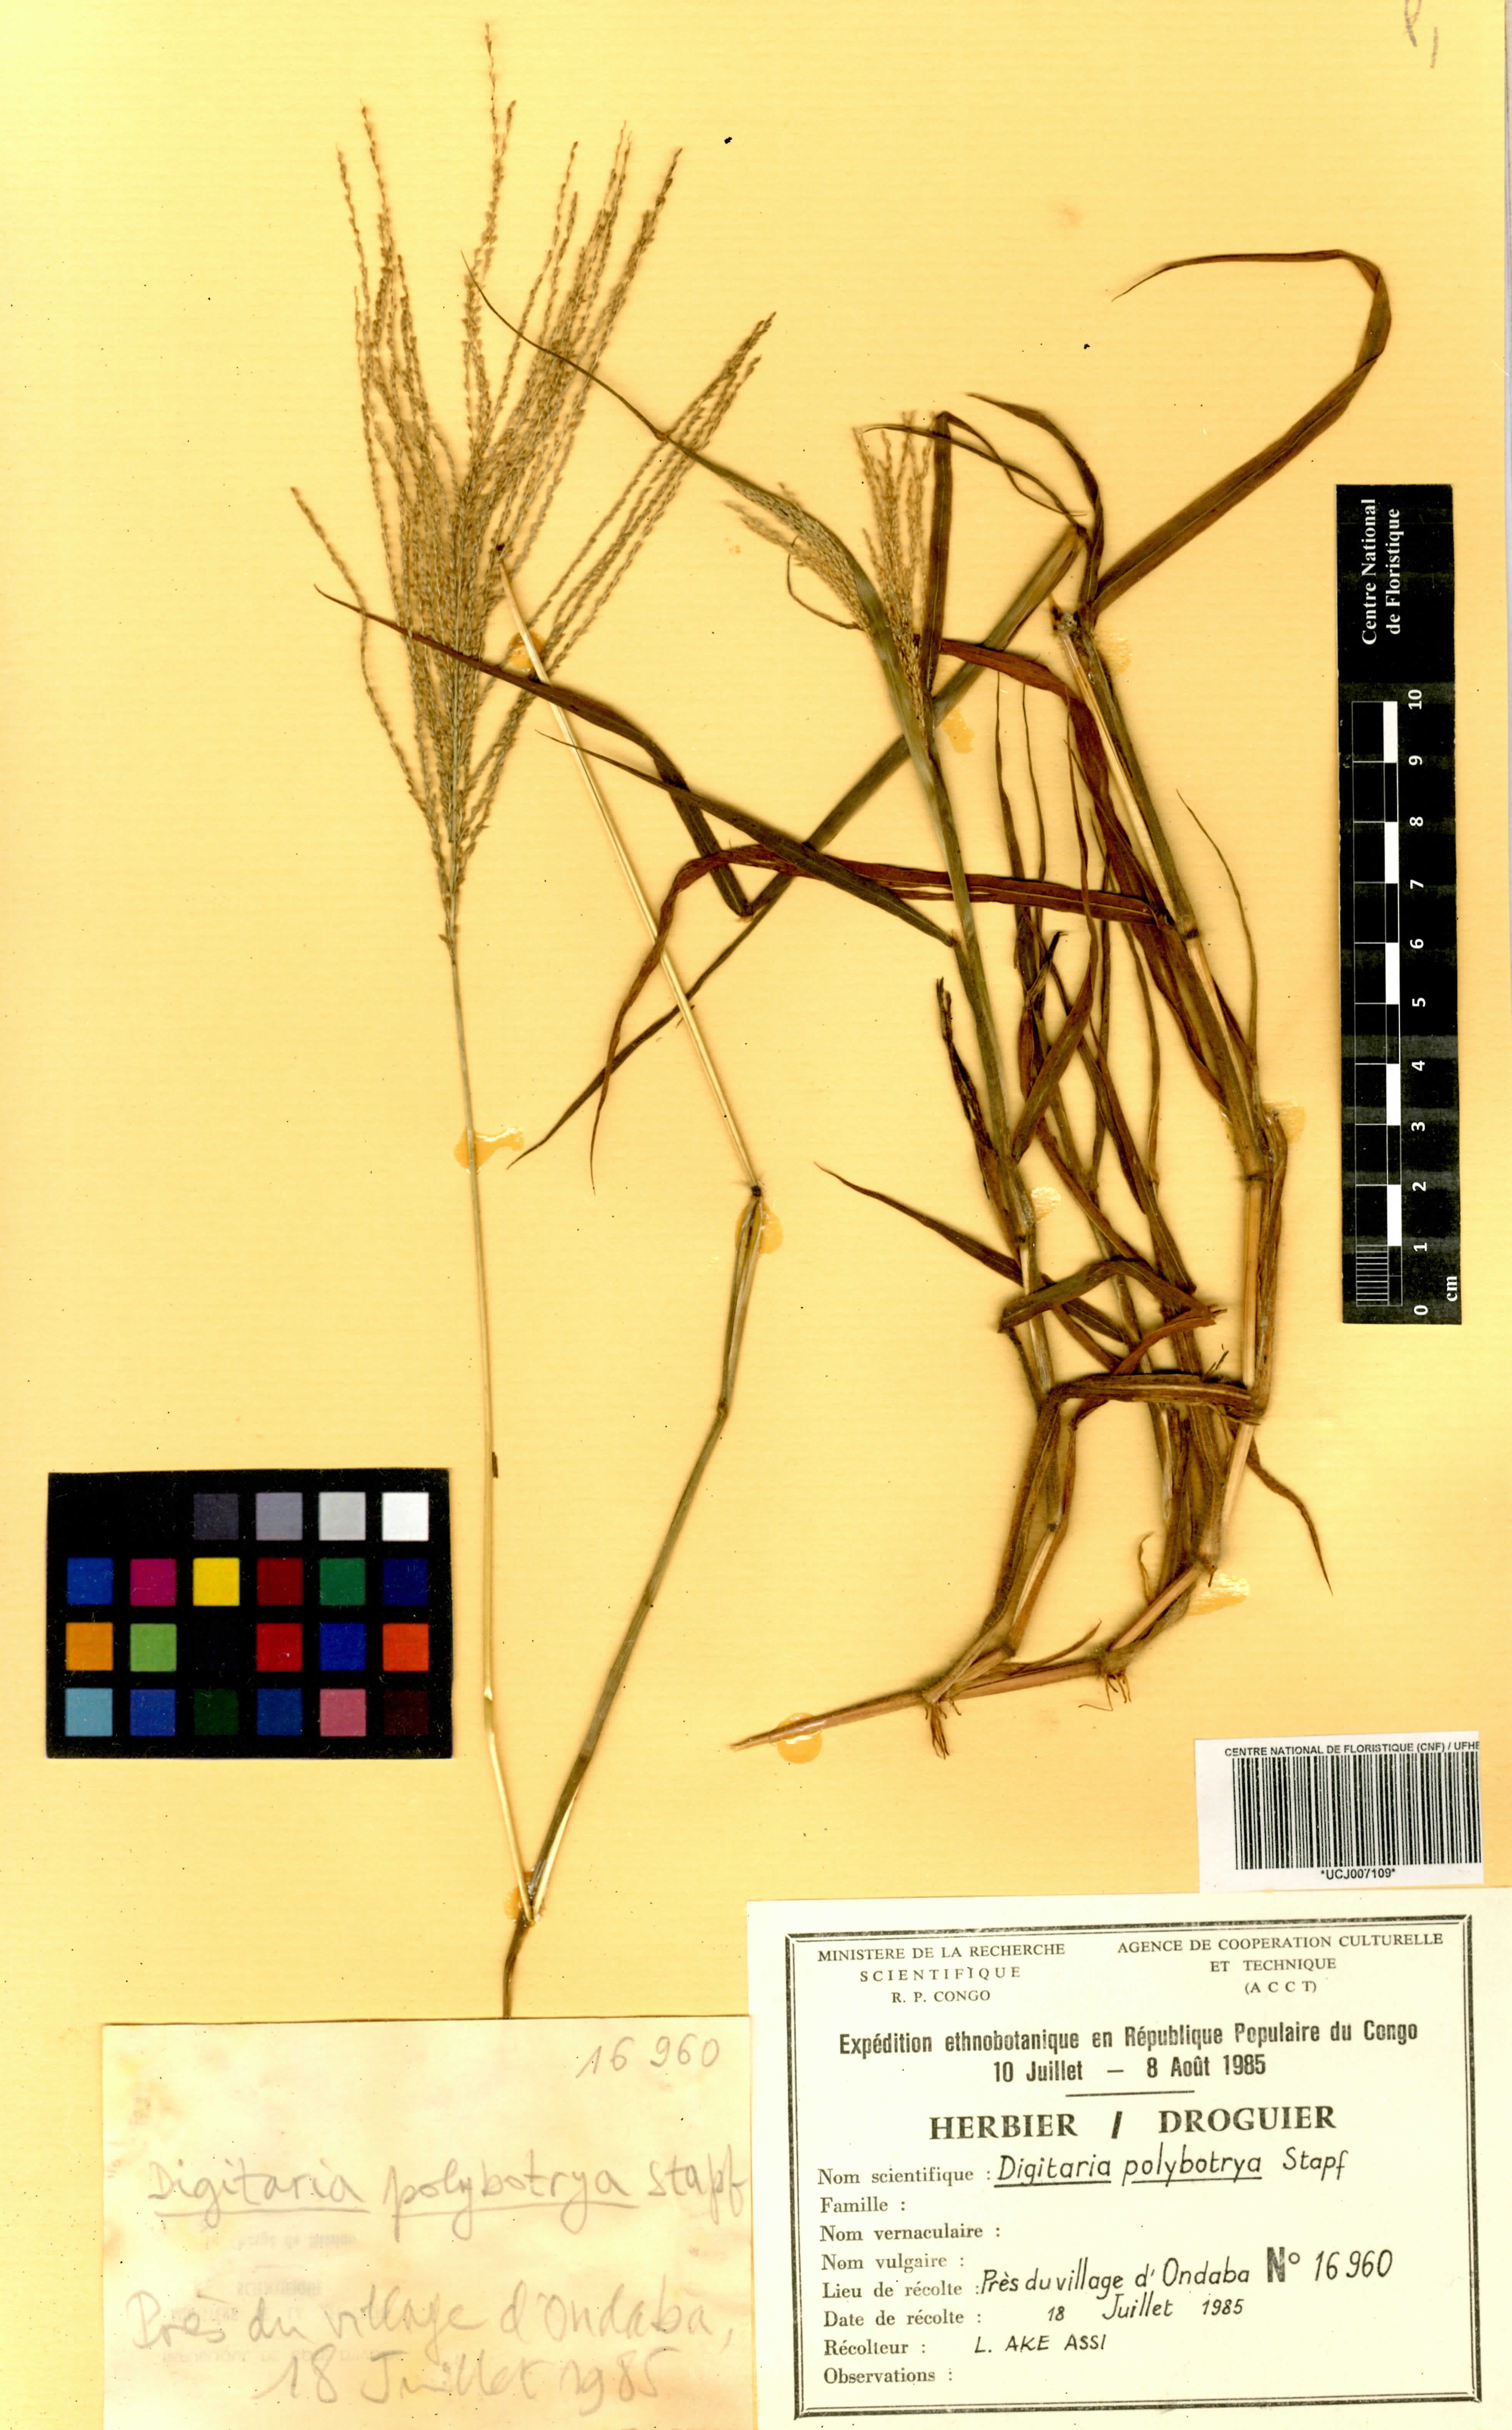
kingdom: Plantae
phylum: Tracheophyta
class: Liliopsida
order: Poales
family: Poaceae
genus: Digitaria
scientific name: Digitaria leptorhachis
